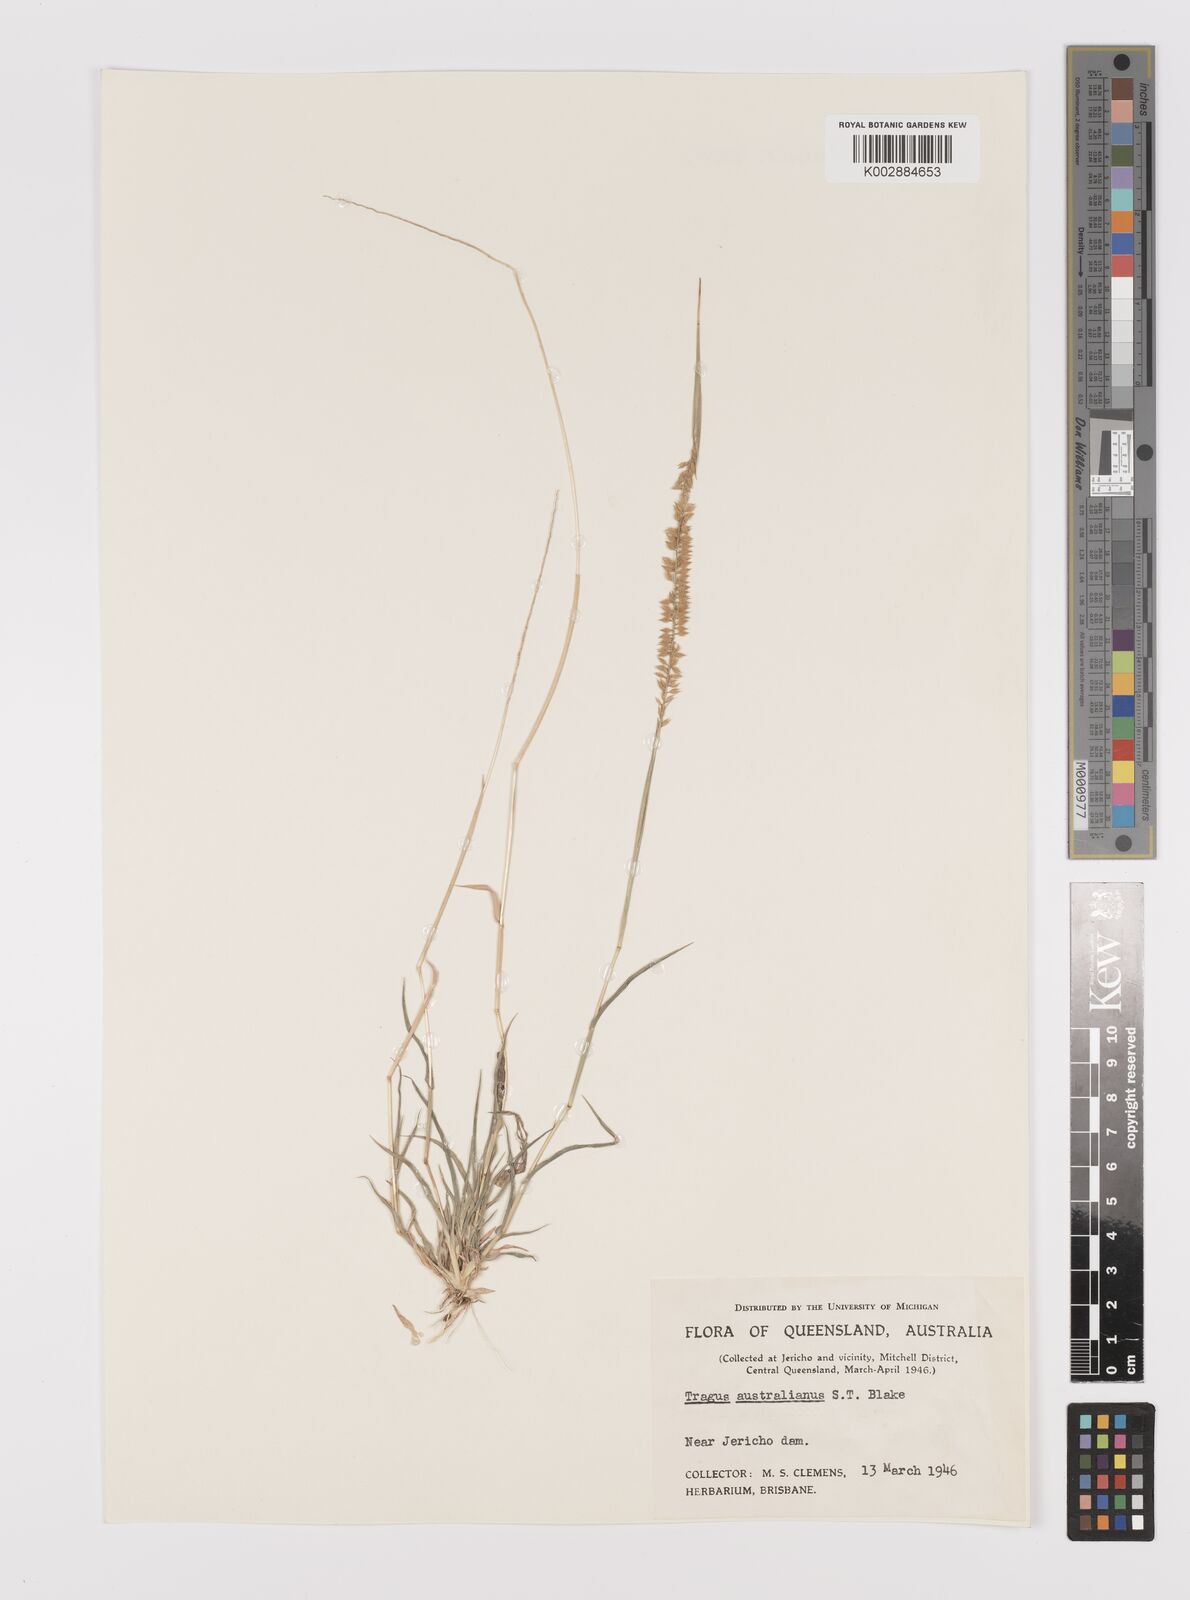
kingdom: Plantae
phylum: Tracheophyta
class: Liliopsida
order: Poales
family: Poaceae
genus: Tragus
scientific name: Tragus australianus
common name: Australian bur-grass
